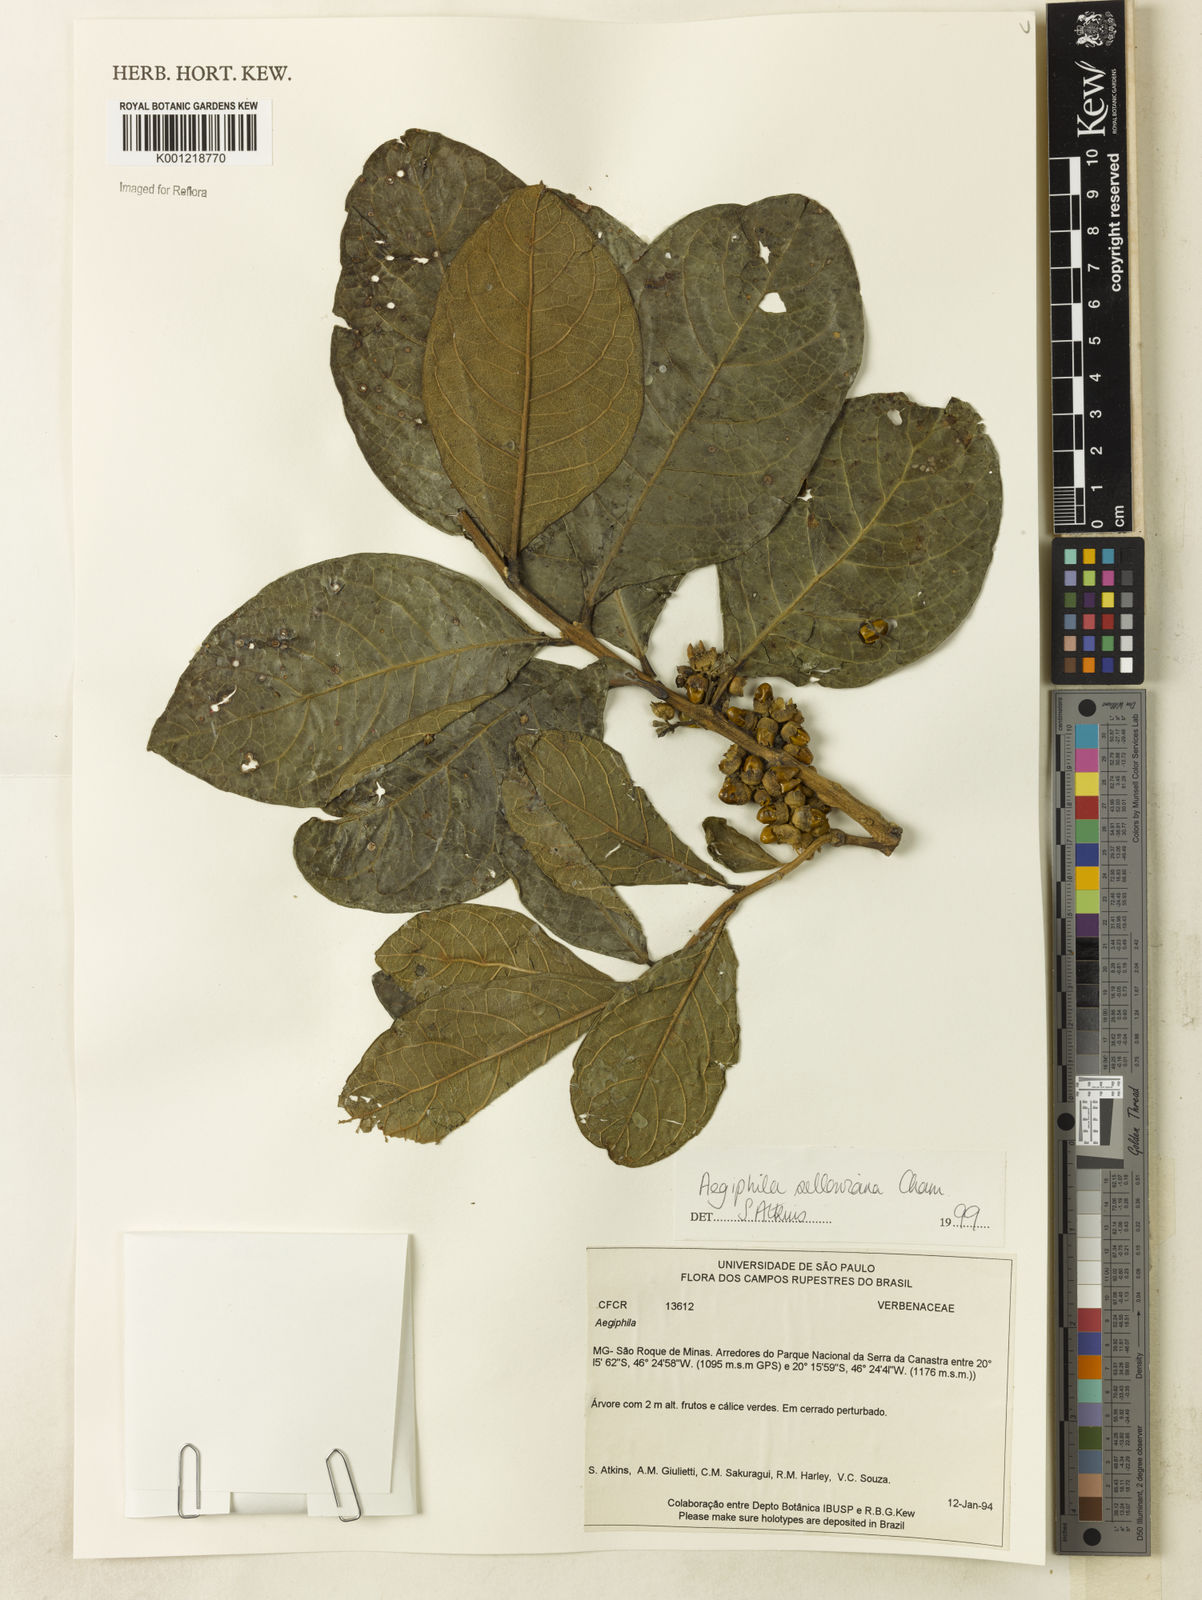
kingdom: Plantae
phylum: Tracheophyta
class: Magnoliopsida
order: Lamiales
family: Lamiaceae
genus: Aegiphila
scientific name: Aegiphila verticillata
